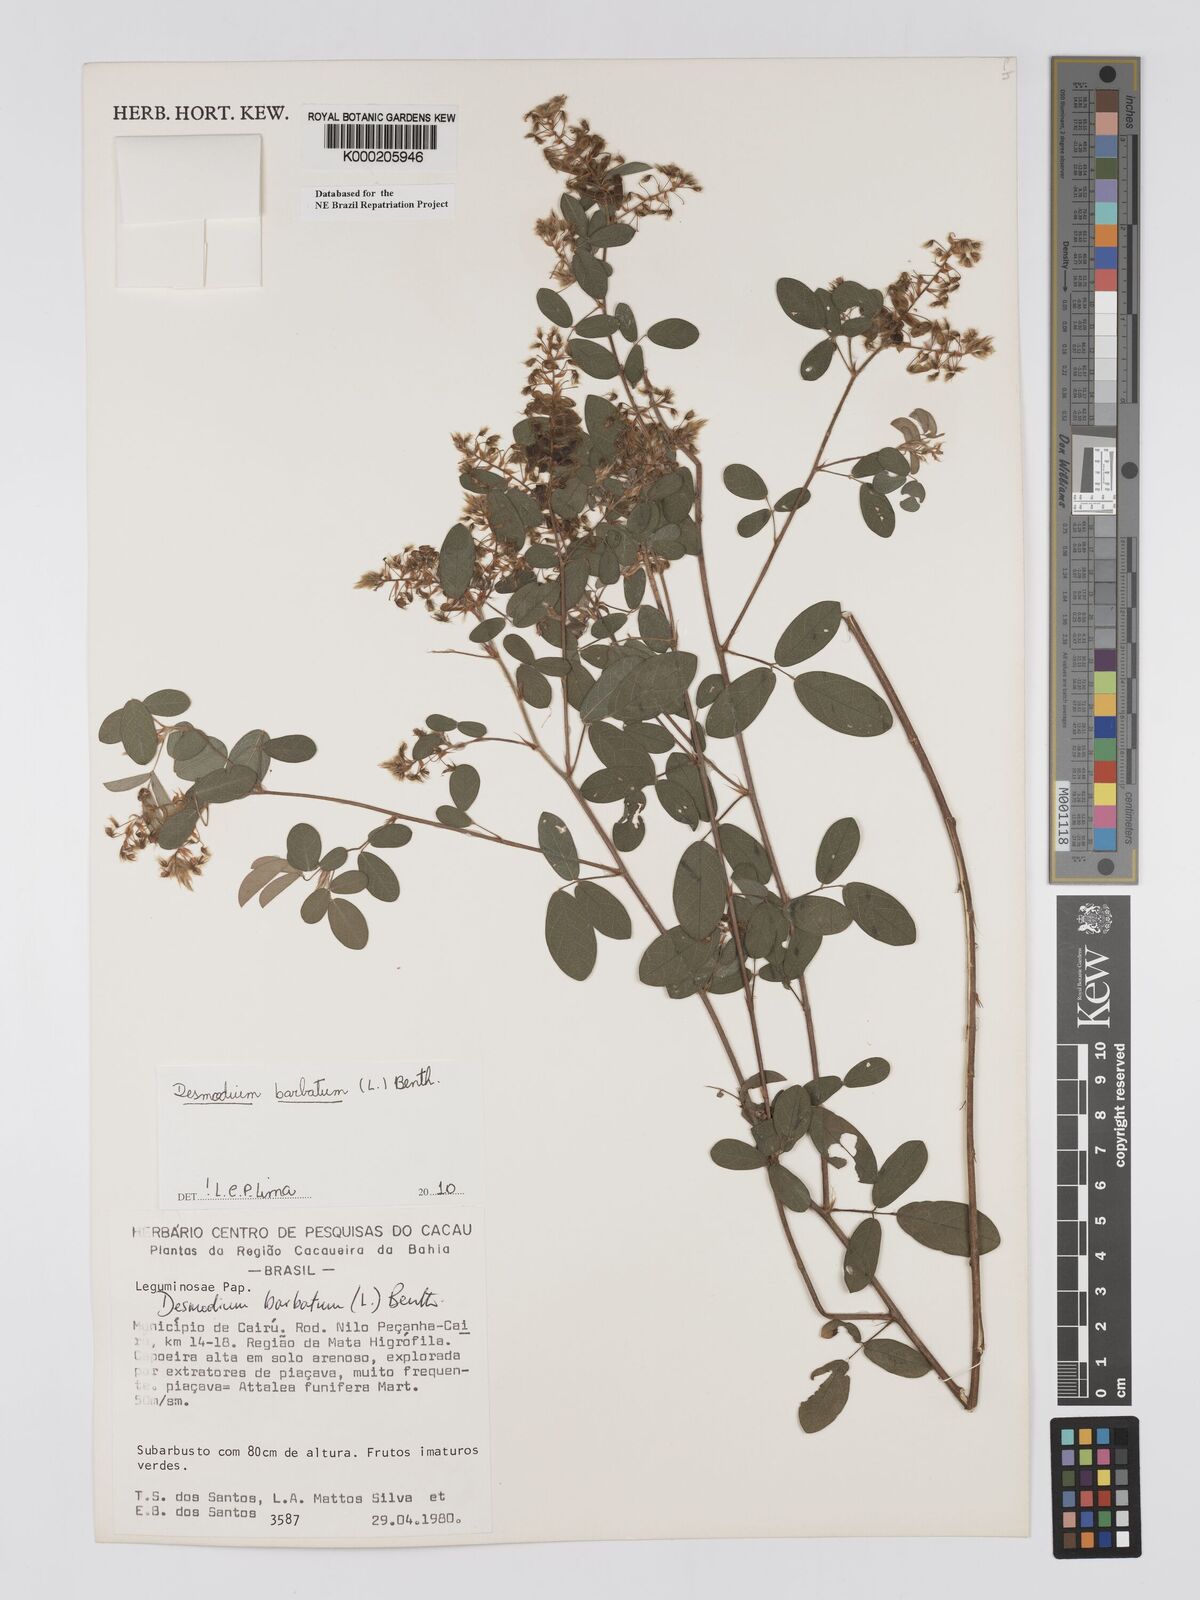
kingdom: Plantae
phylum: Tracheophyta
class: Magnoliopsida
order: Fabales
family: Fabaceae
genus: Grona
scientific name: Grona barbata
